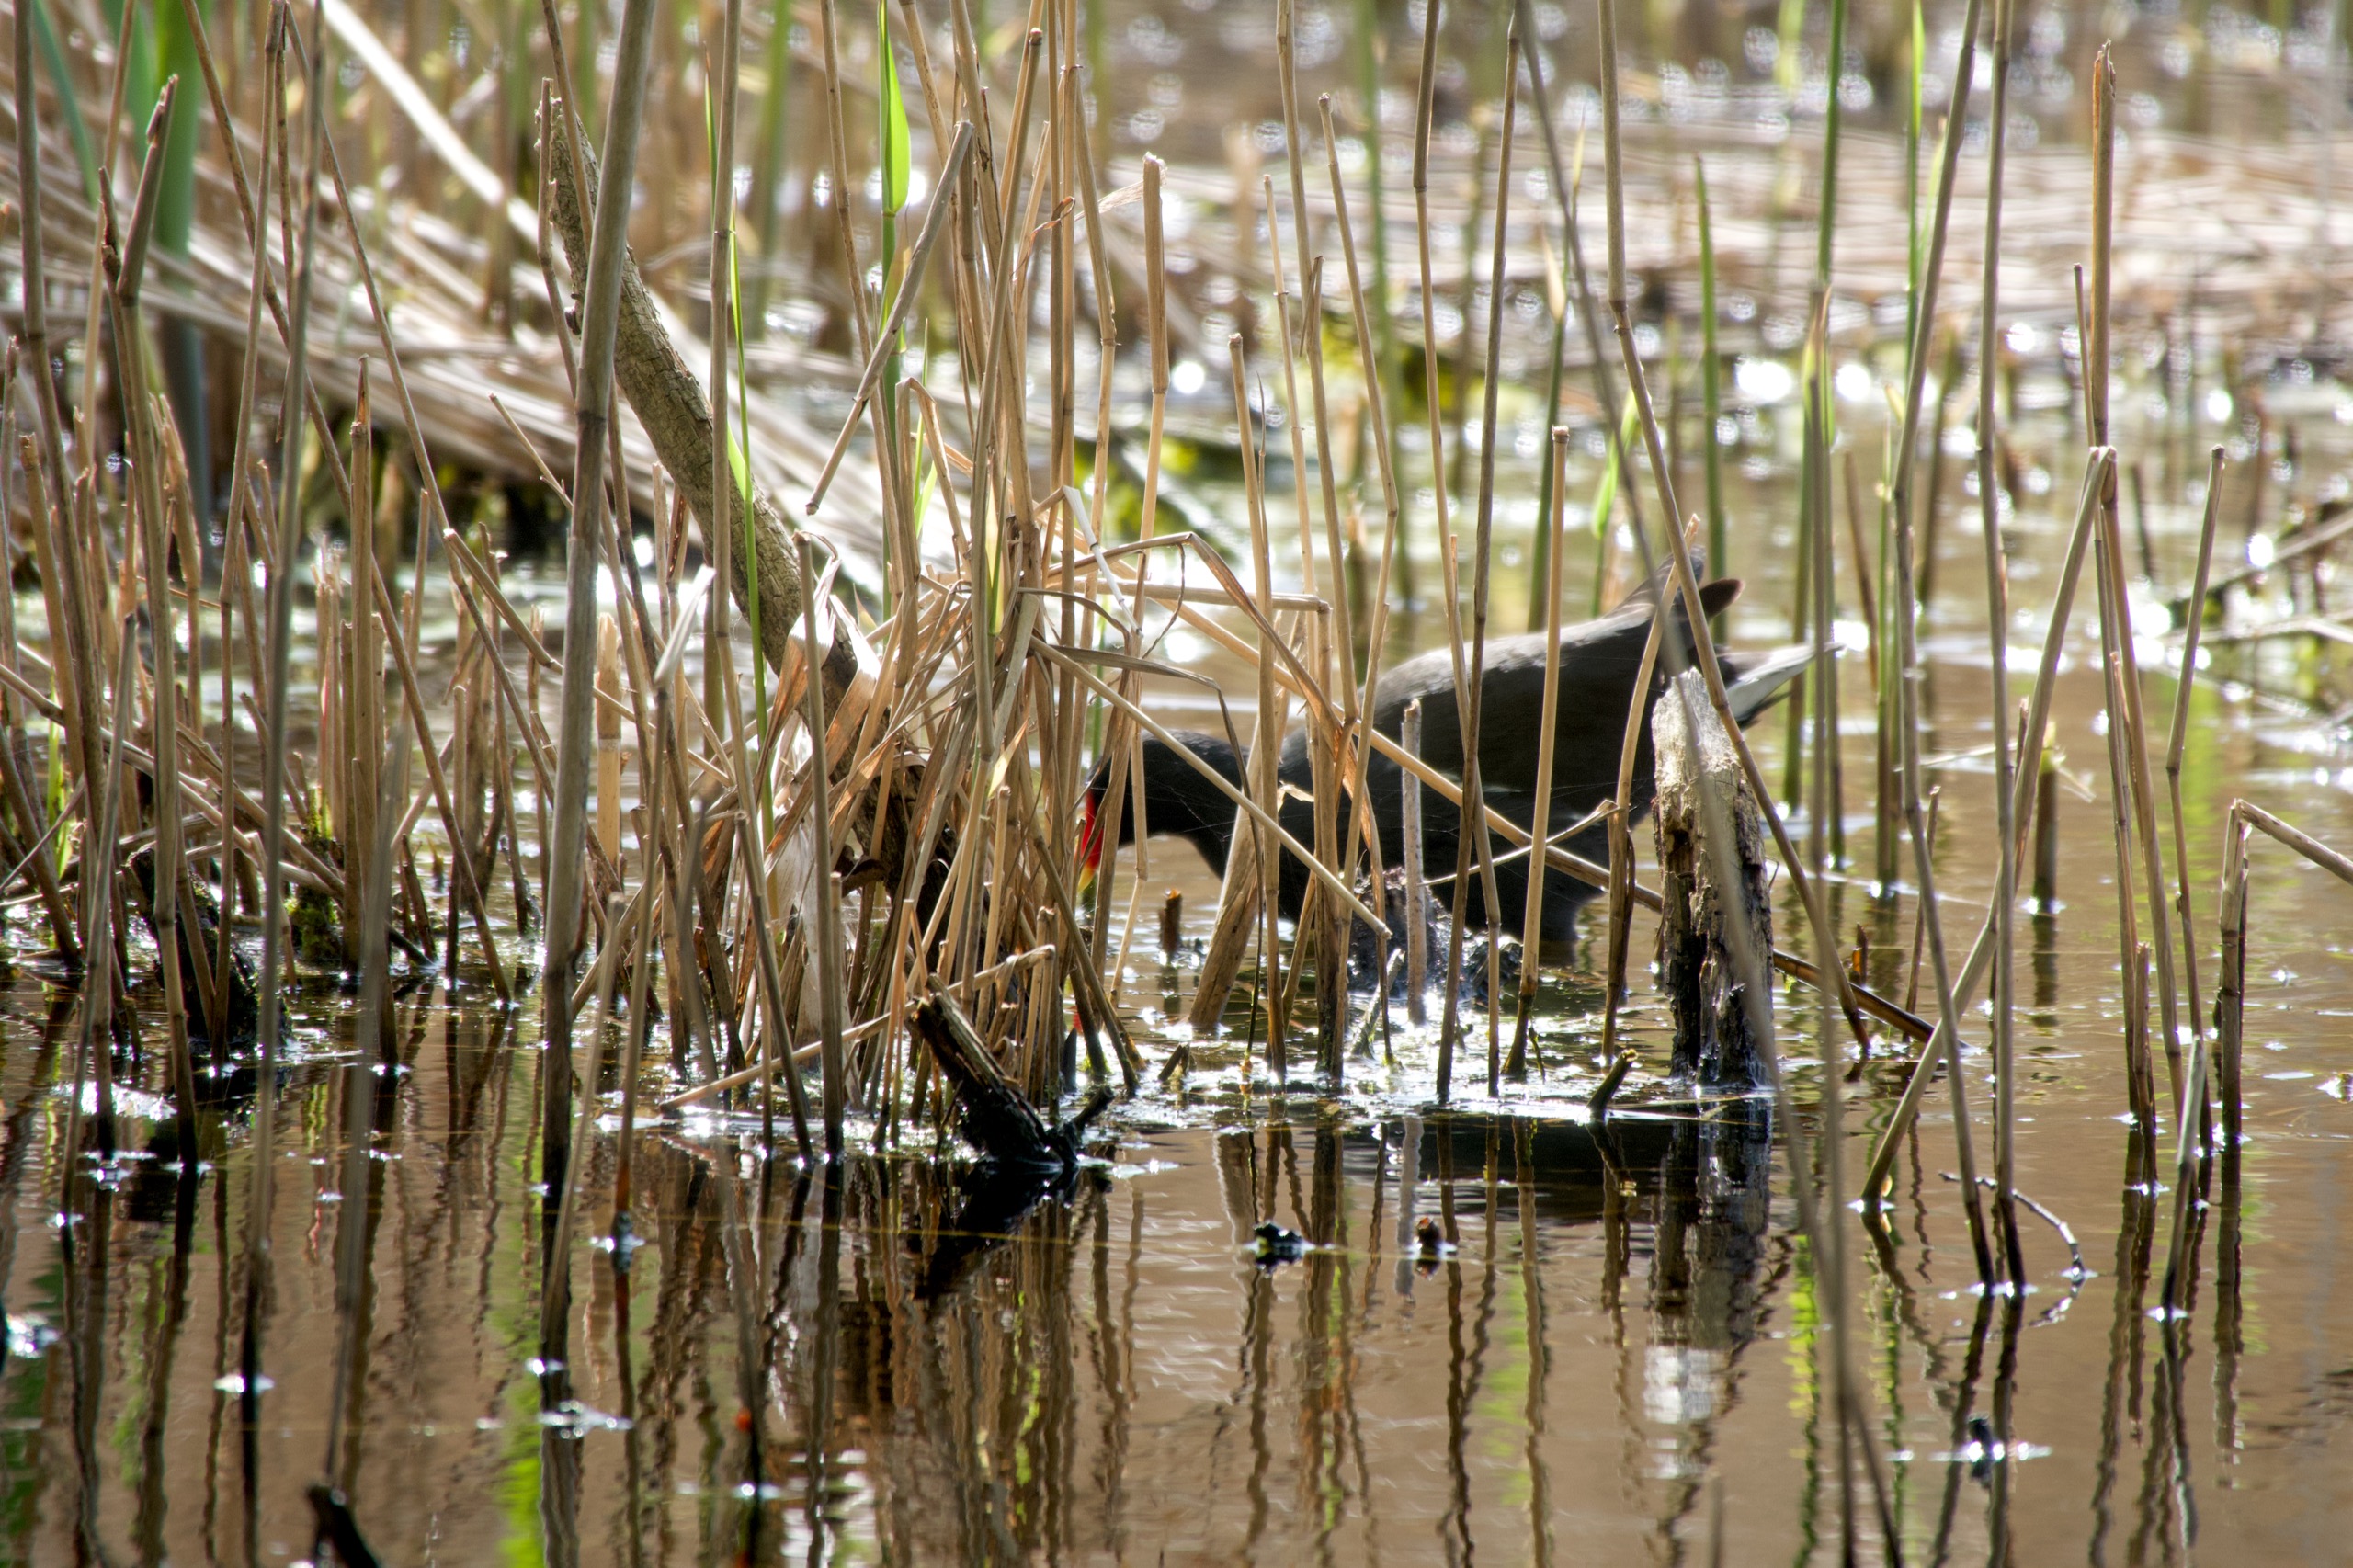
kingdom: Animalia
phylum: Chordata
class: Aves
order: Gruiformes
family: Rallidae
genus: Gallinula
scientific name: Gallinula chloropus
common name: Grønbenet rørhøne
